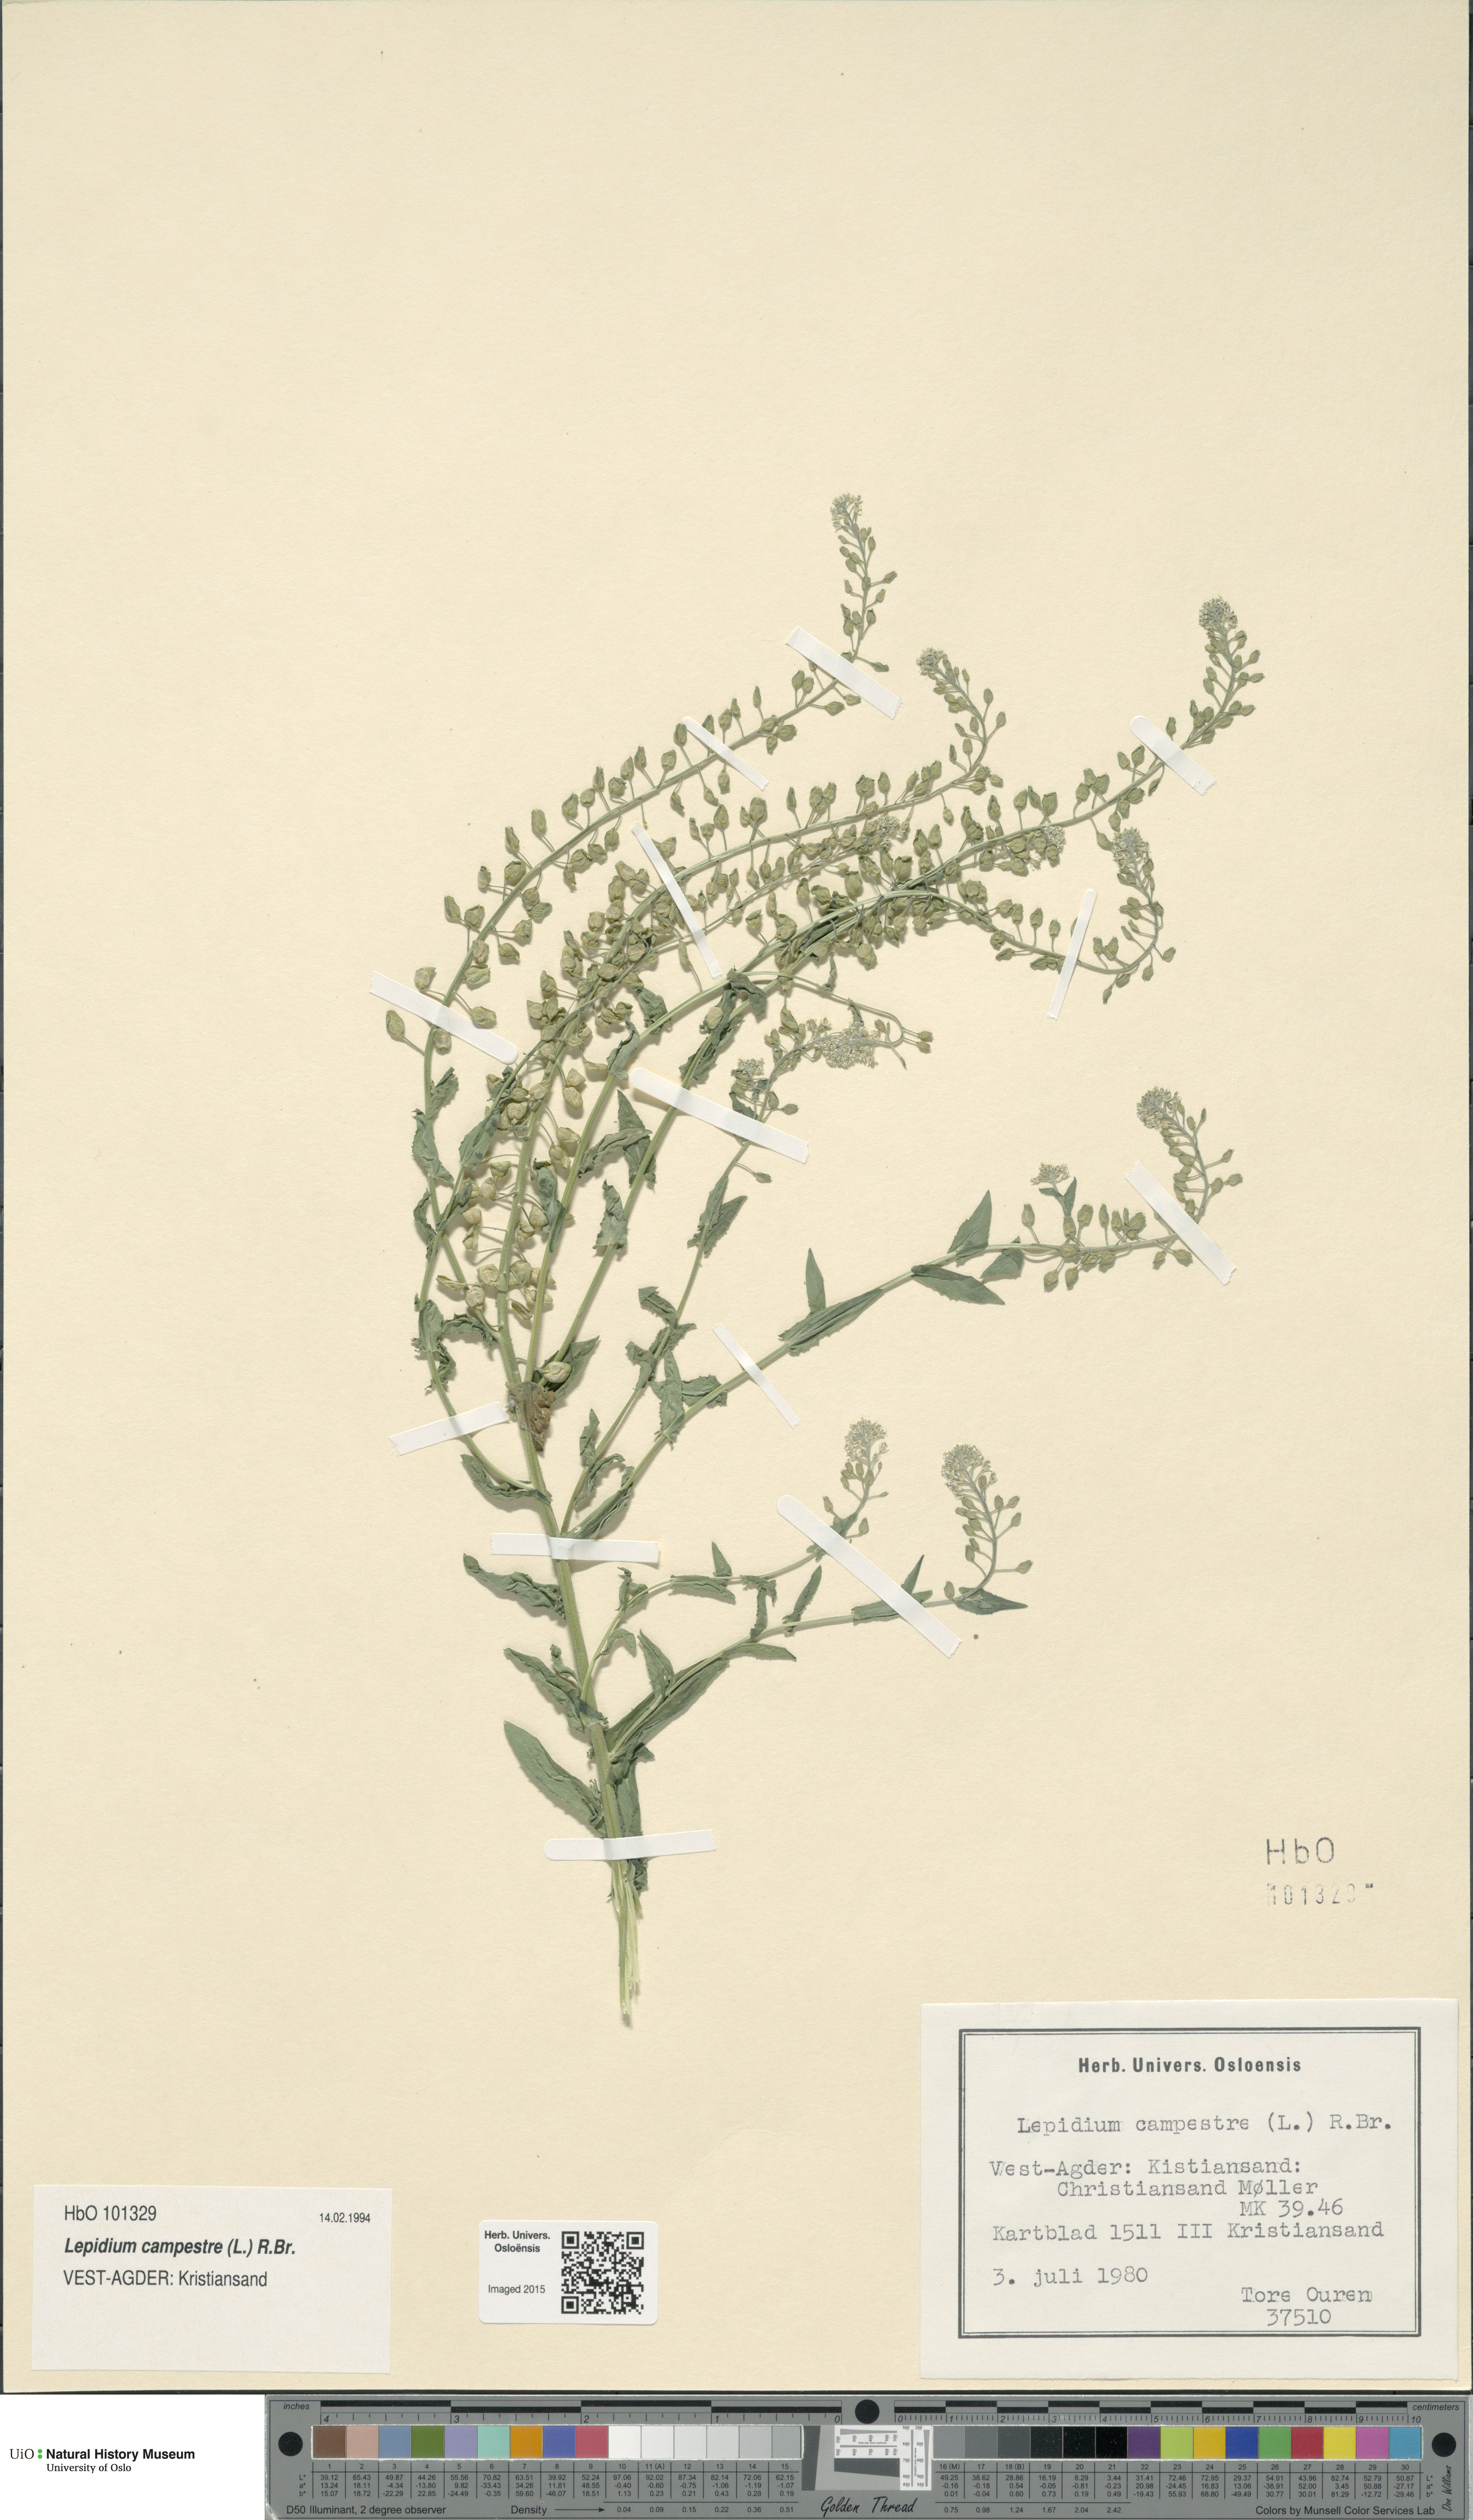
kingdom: Plantae
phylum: Tracheophyta
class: Magnoliopsida
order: Brassicales
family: Brassicaceae
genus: Lepidium
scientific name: Lepidium campestre
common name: Field pepperwort
